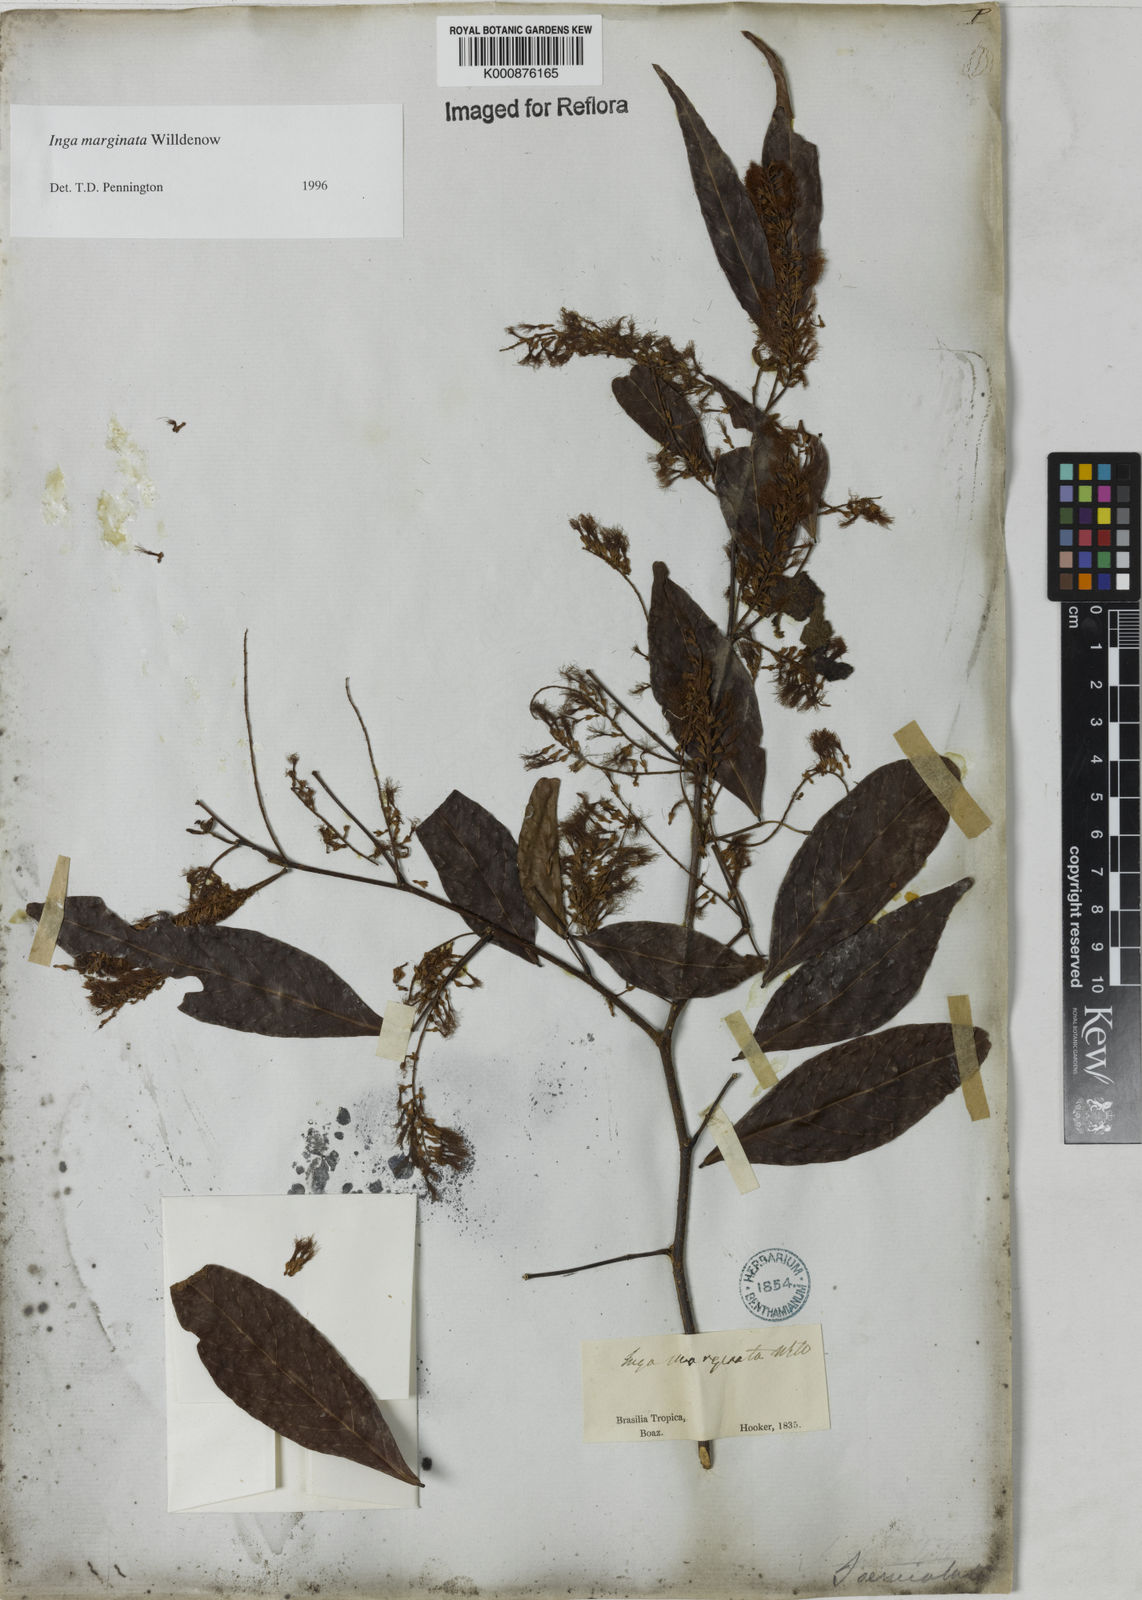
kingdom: Plantae
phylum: Tracheophyta
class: Magnoliopsida
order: Fabales
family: Fabaceae
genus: Inga
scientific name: Inga marginata
